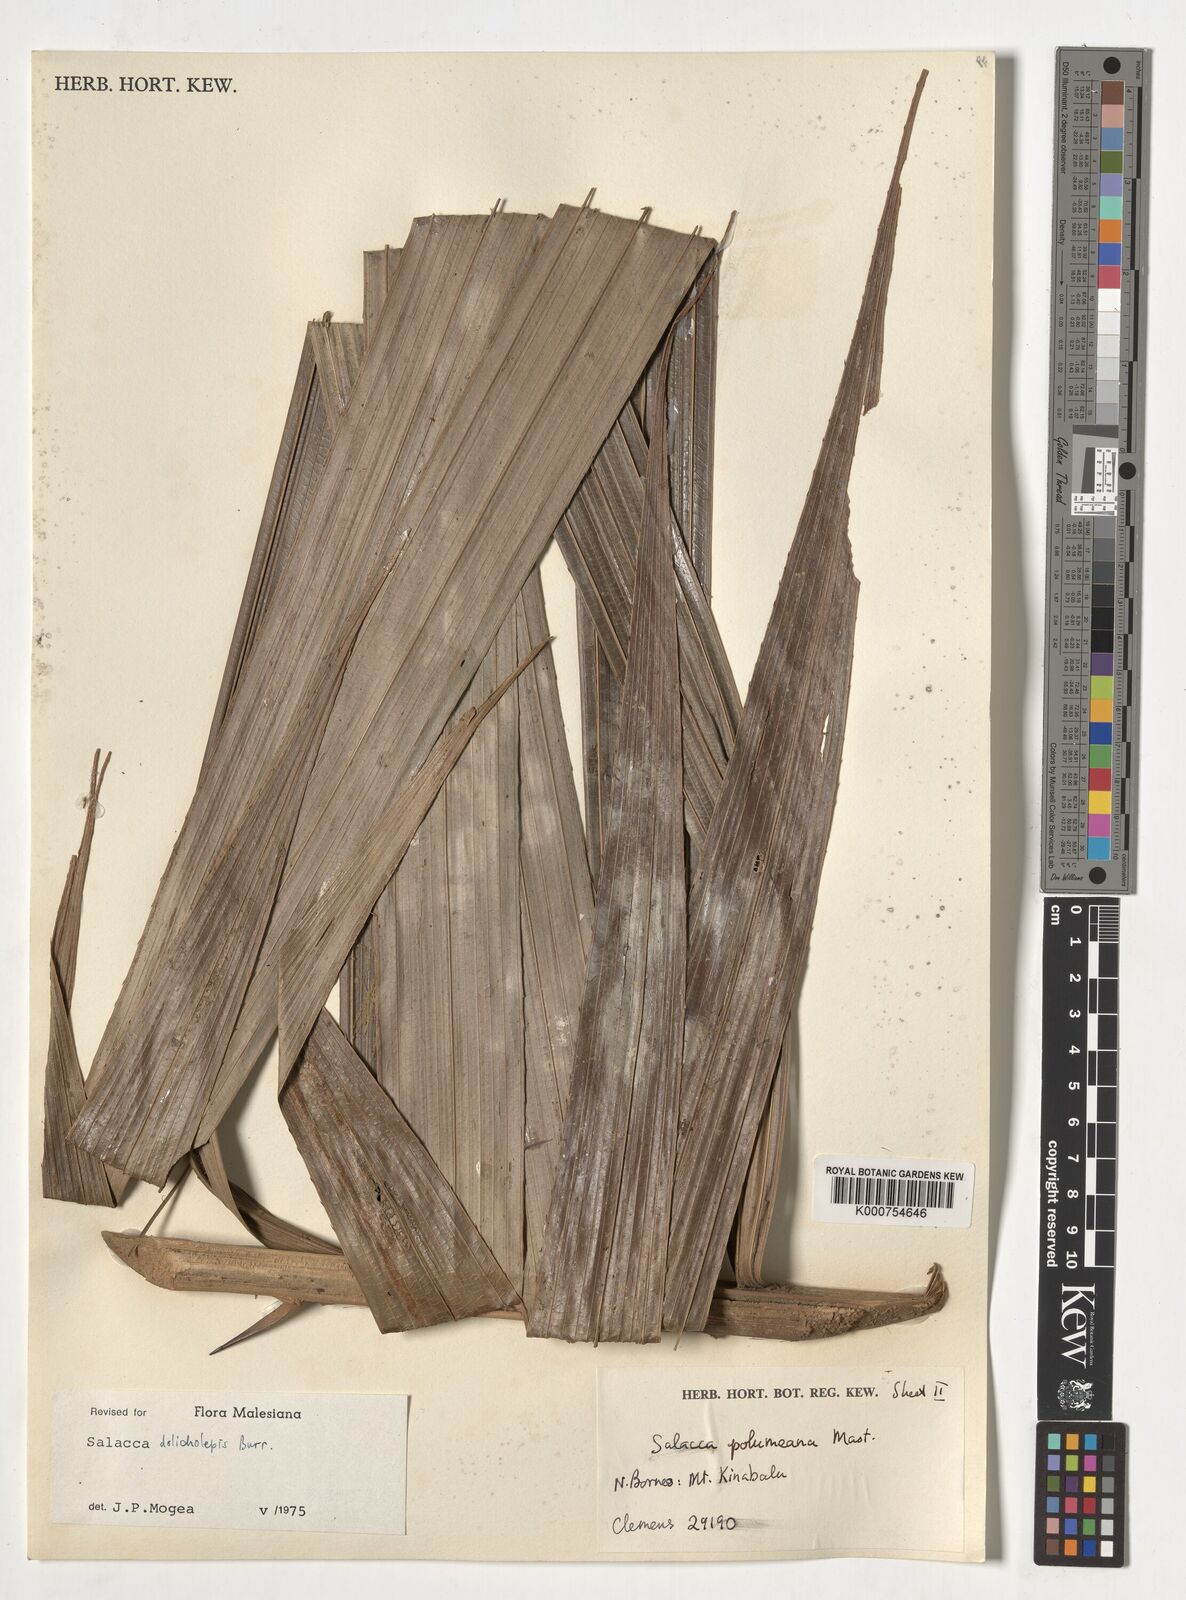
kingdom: Plantae
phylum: Tracheophyta
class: Liliopsida
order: Arecales
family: Arecaceae
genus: Salacca
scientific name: Salacca dolicholepis
